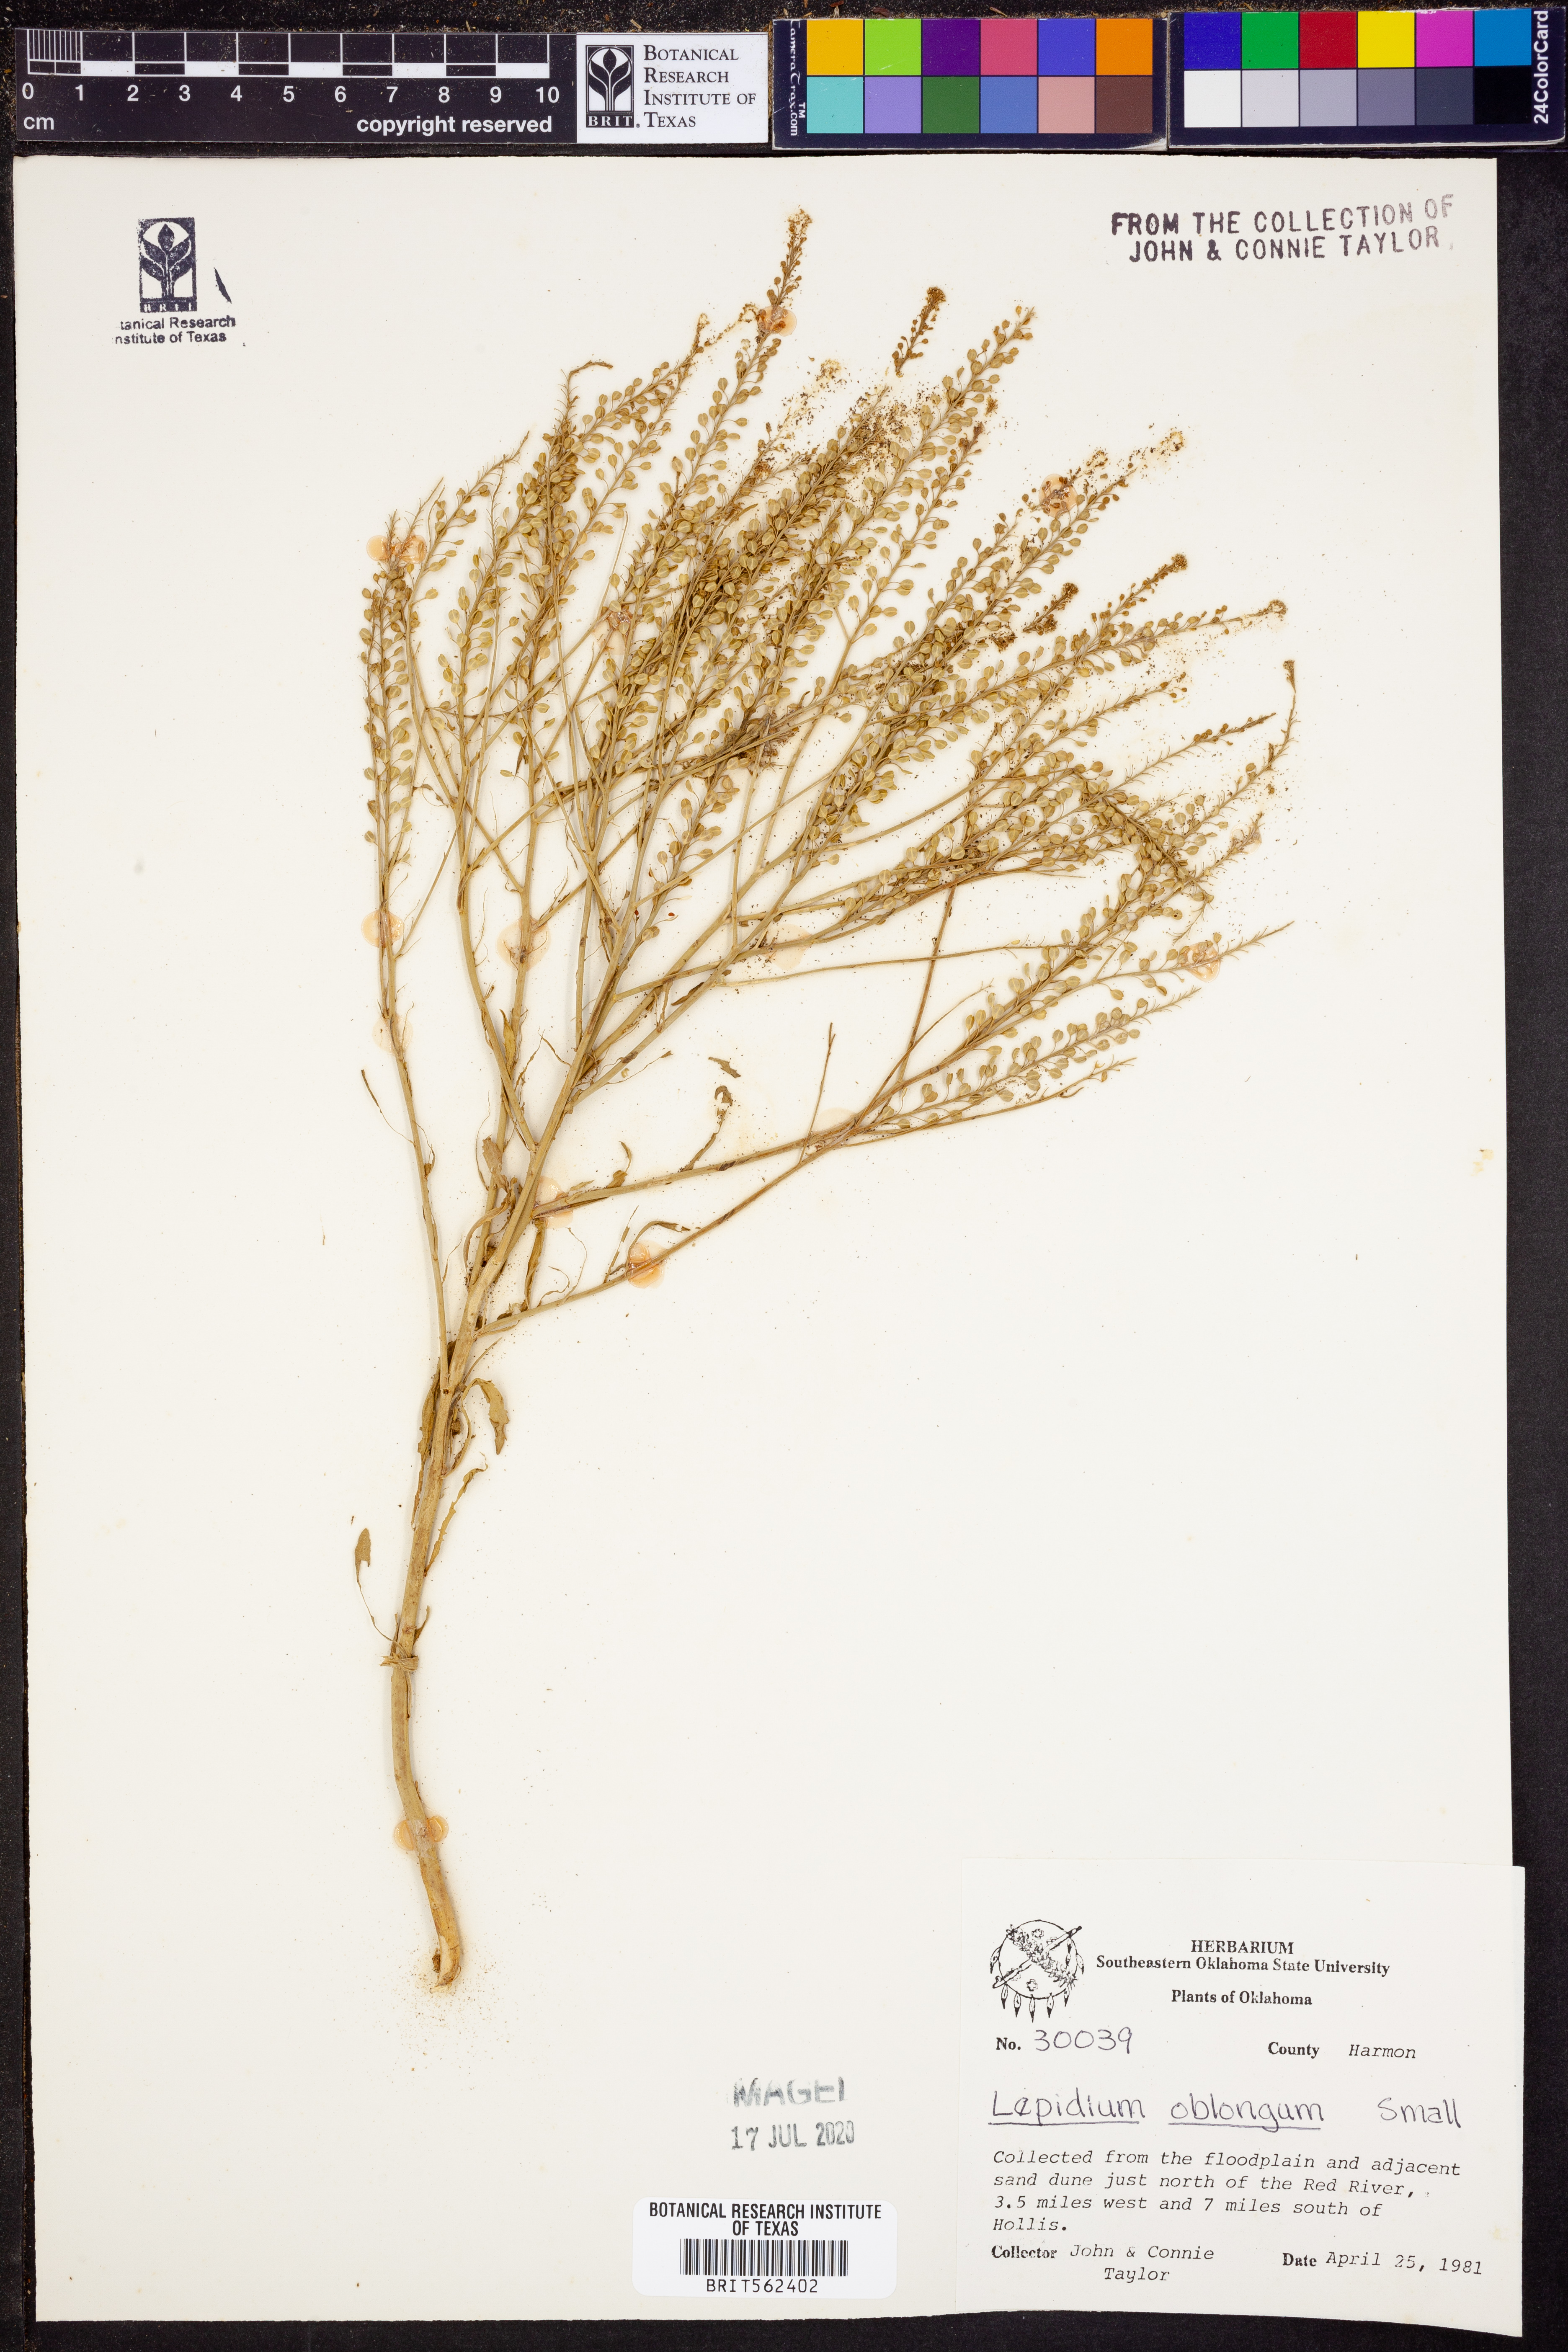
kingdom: Plantae
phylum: Tracheophyta
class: Magnoliopsida
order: Brassicales
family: Brassicaceae
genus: Lepidium
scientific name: Lepidium oblongum
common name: Veiny pepperweed
